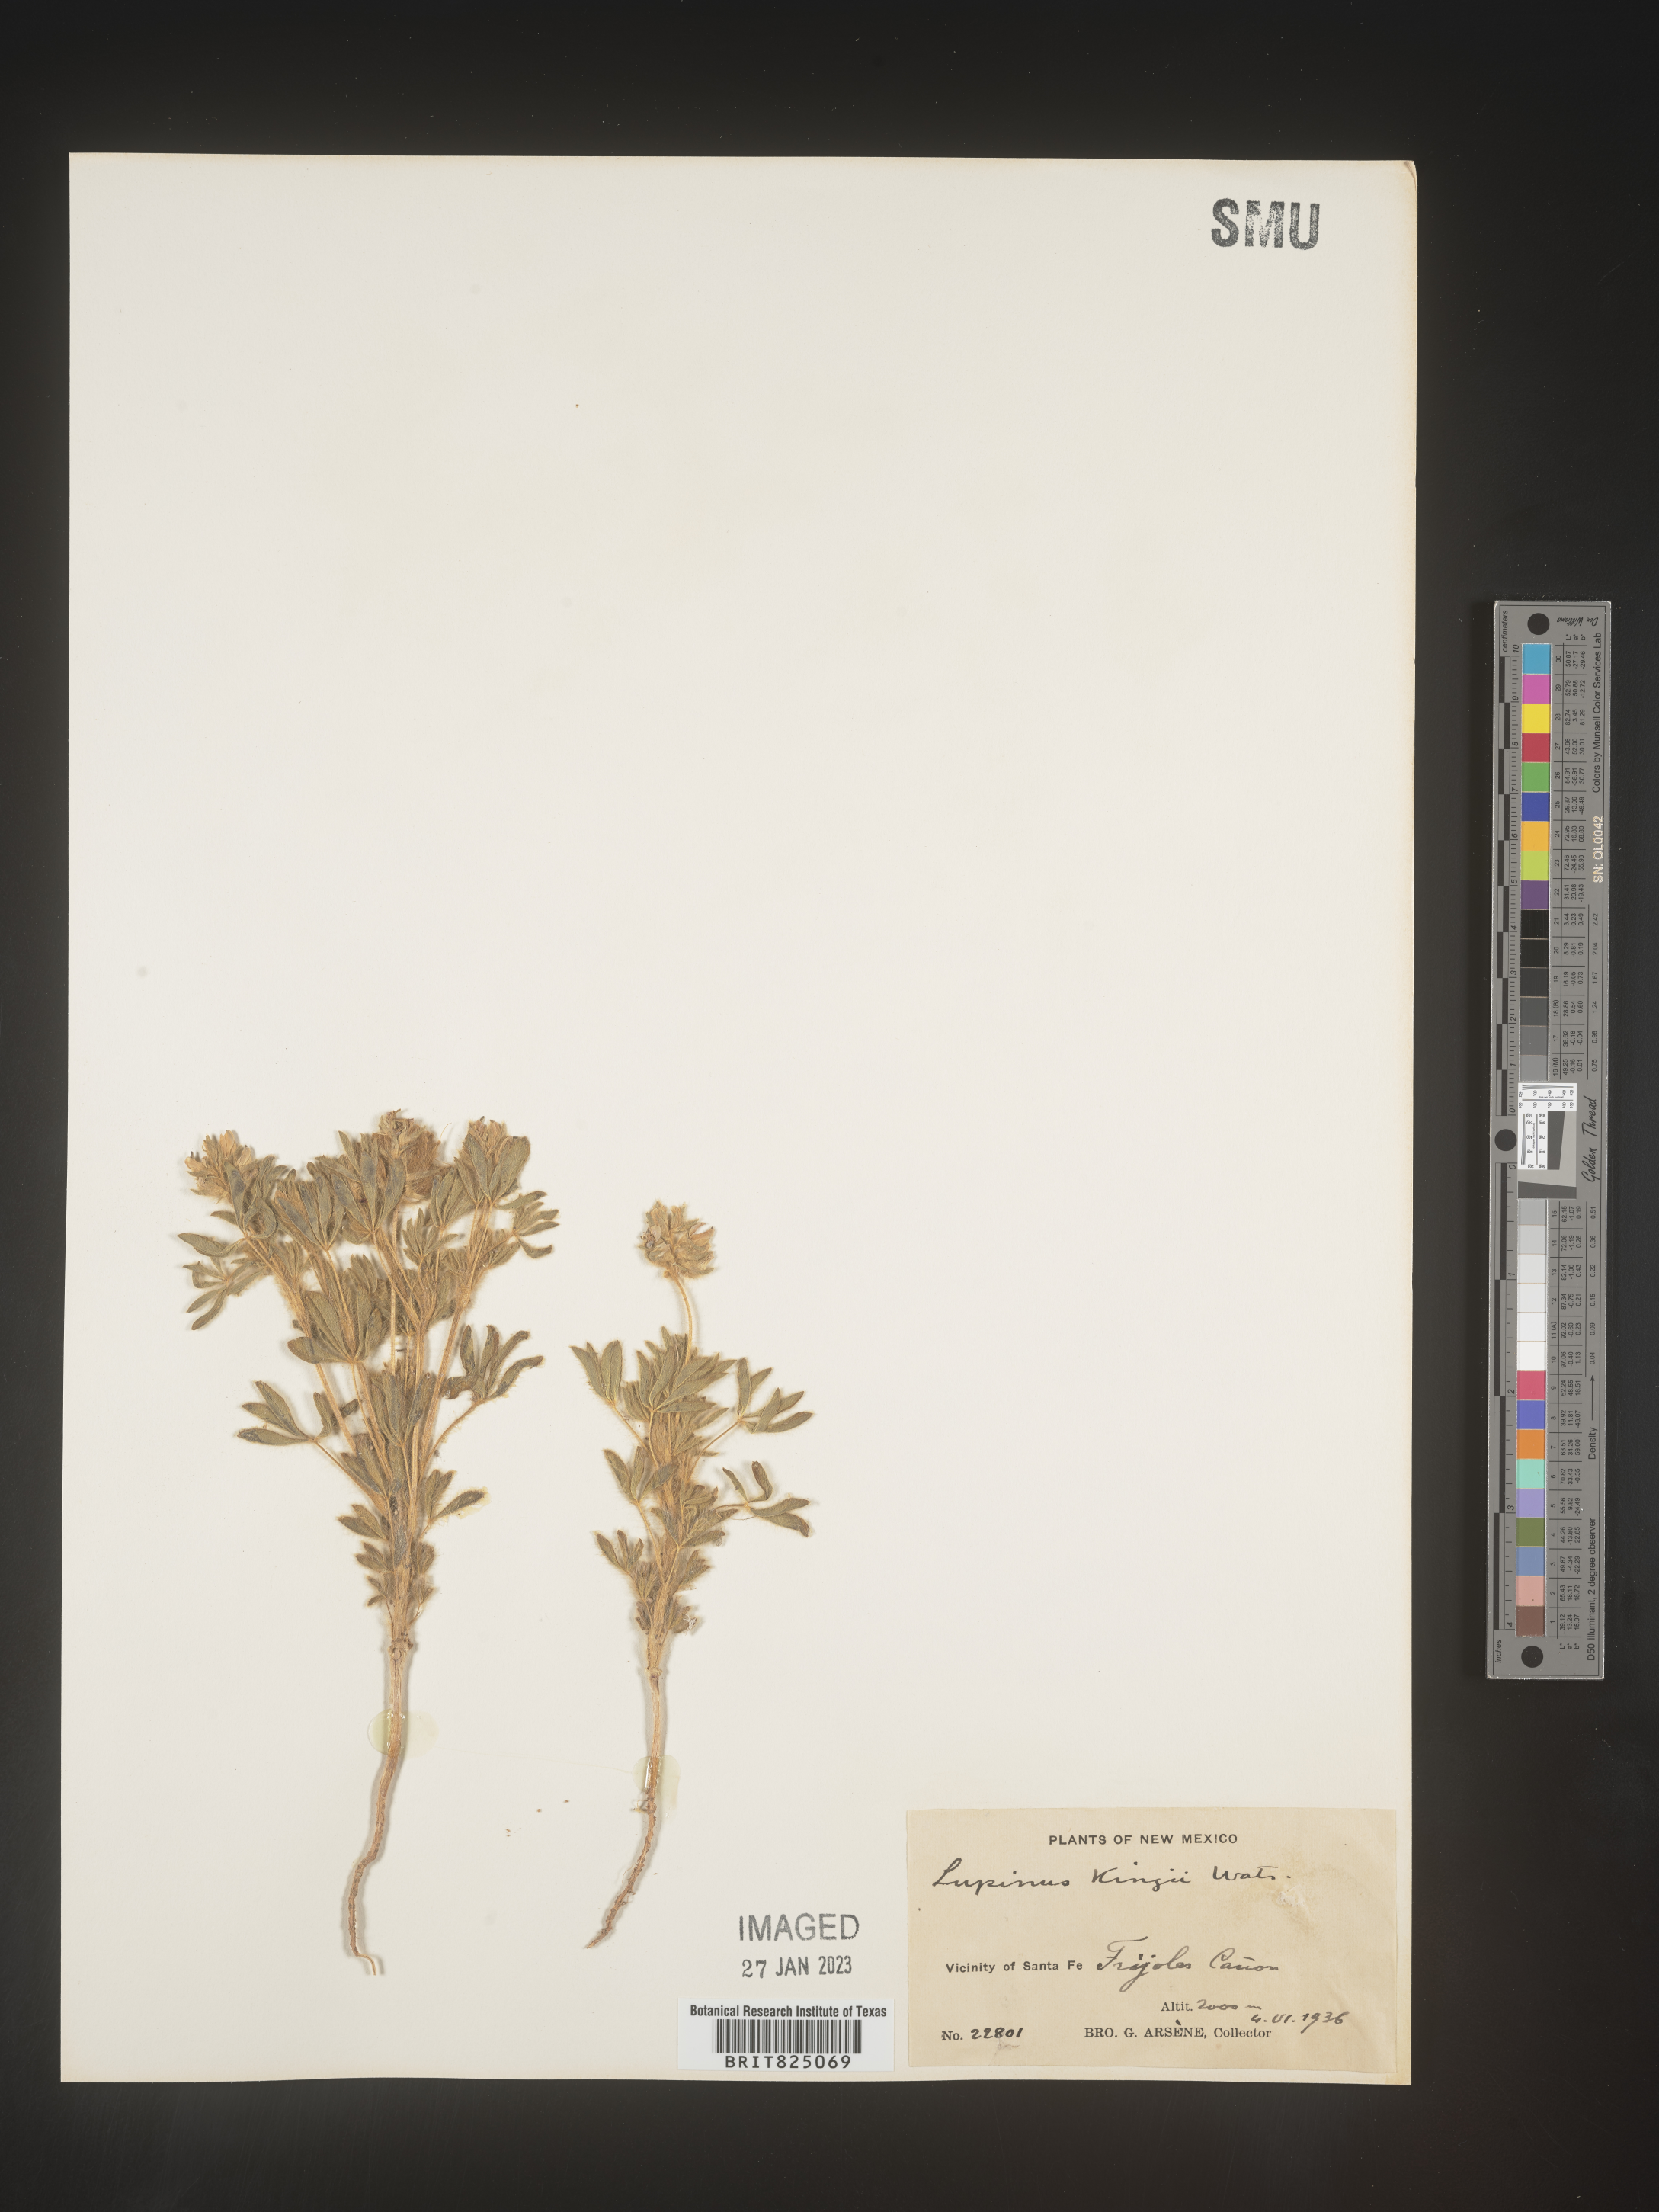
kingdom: Plantae
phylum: Tracheophyta
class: Magnoliopsida
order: Fabales
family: Fabaceae
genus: Lupinus
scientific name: Lupinus
